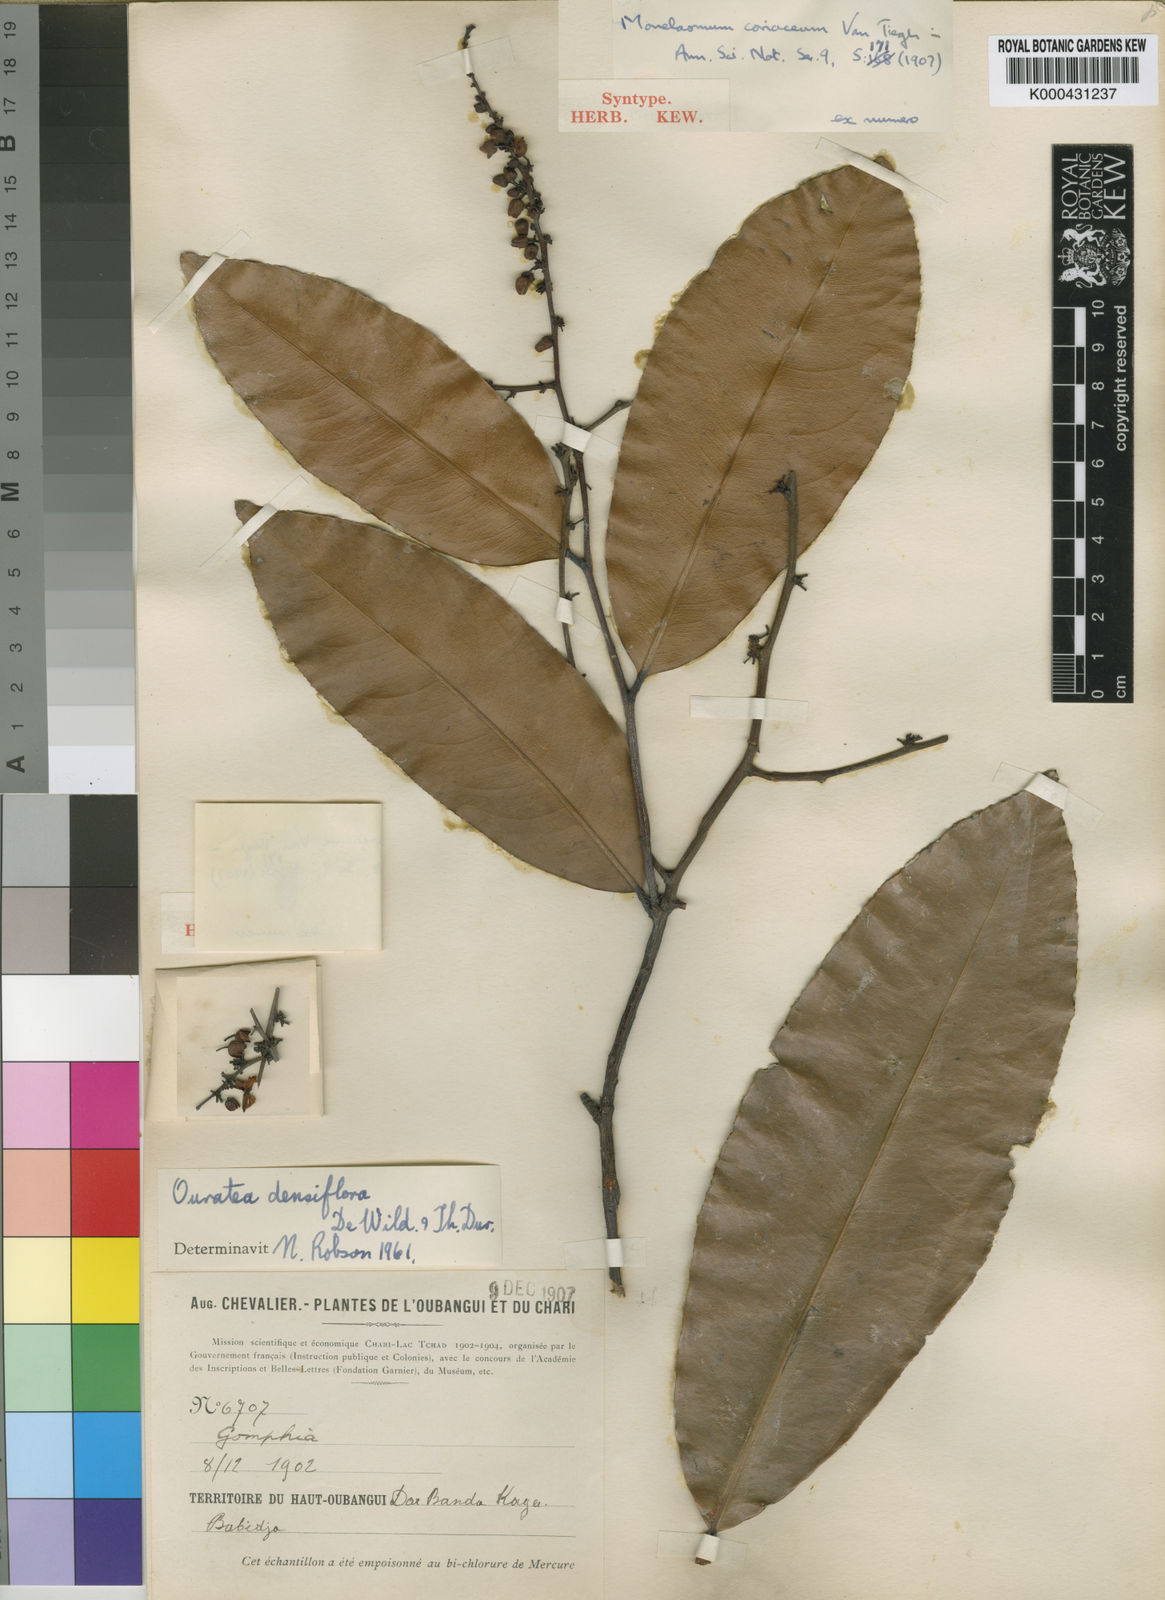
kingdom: Plantae
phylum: Tracheophyta
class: Magnoliopsida
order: Malpighiales
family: Ochnaceae
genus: Gomphia
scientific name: Gomphia densiflora
